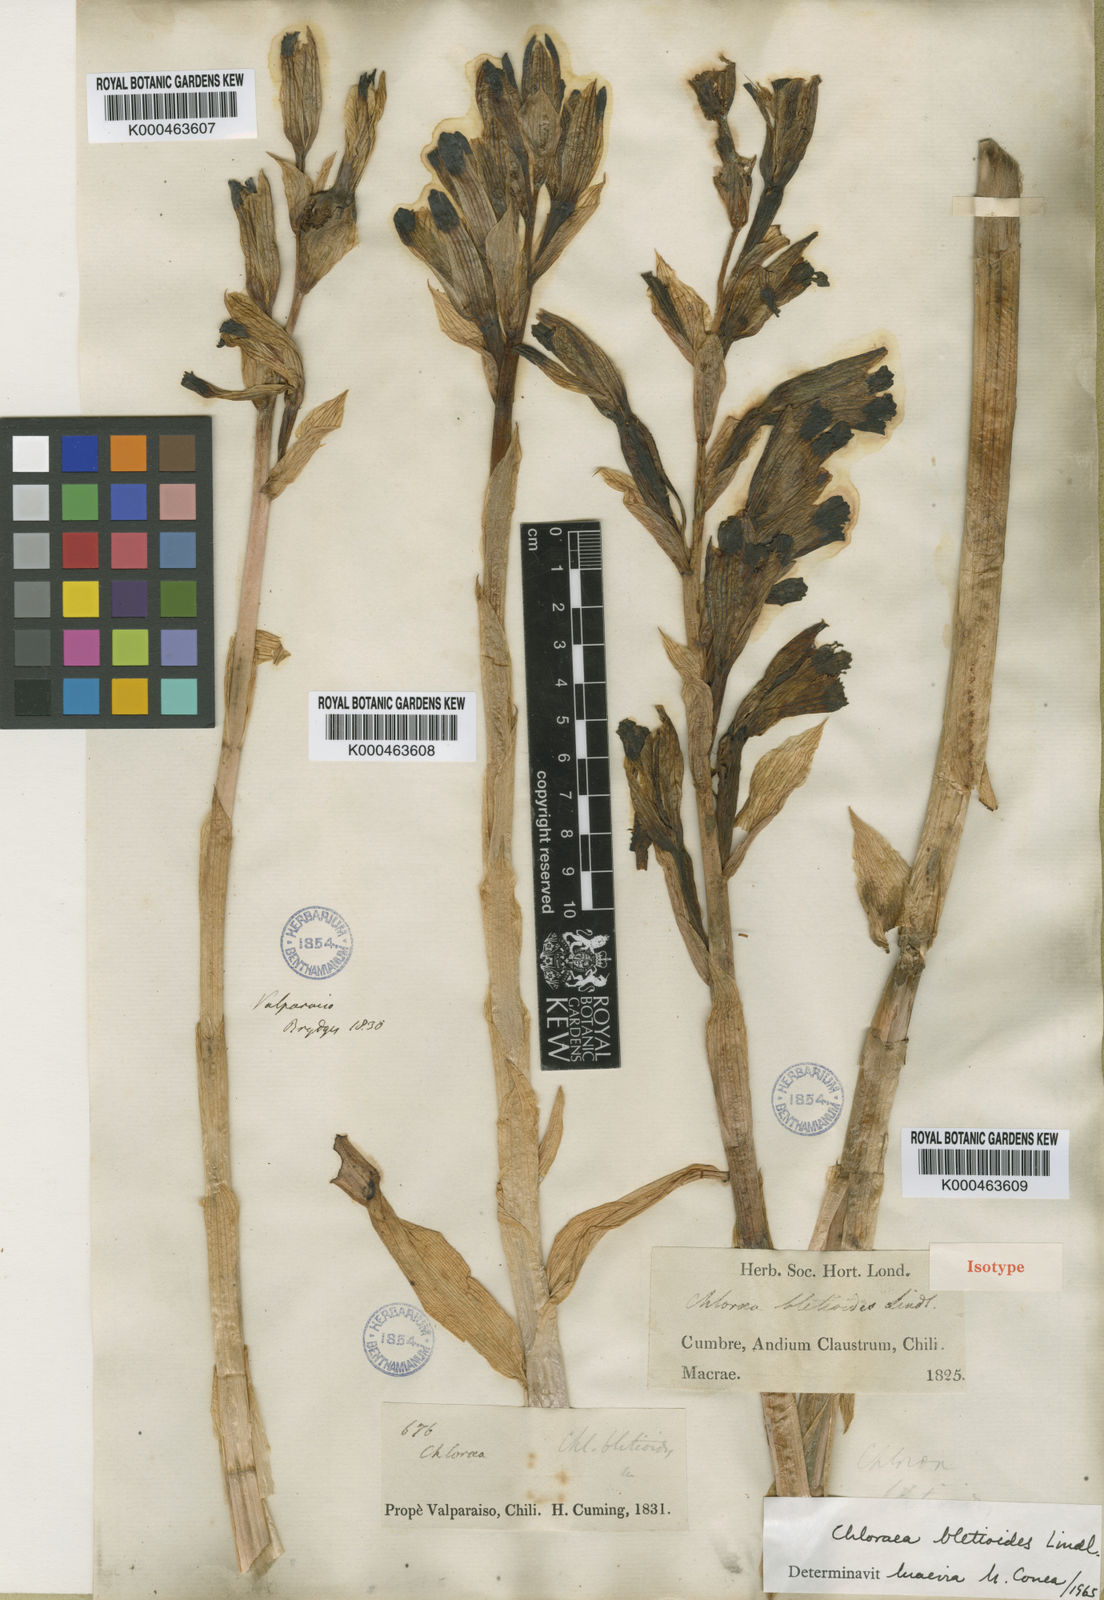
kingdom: Plantae
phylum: Tracheophyta
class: Liliopsida
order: Asparagales
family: Orchidaceae
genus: Chloraea
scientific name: Chloraea bletioides
